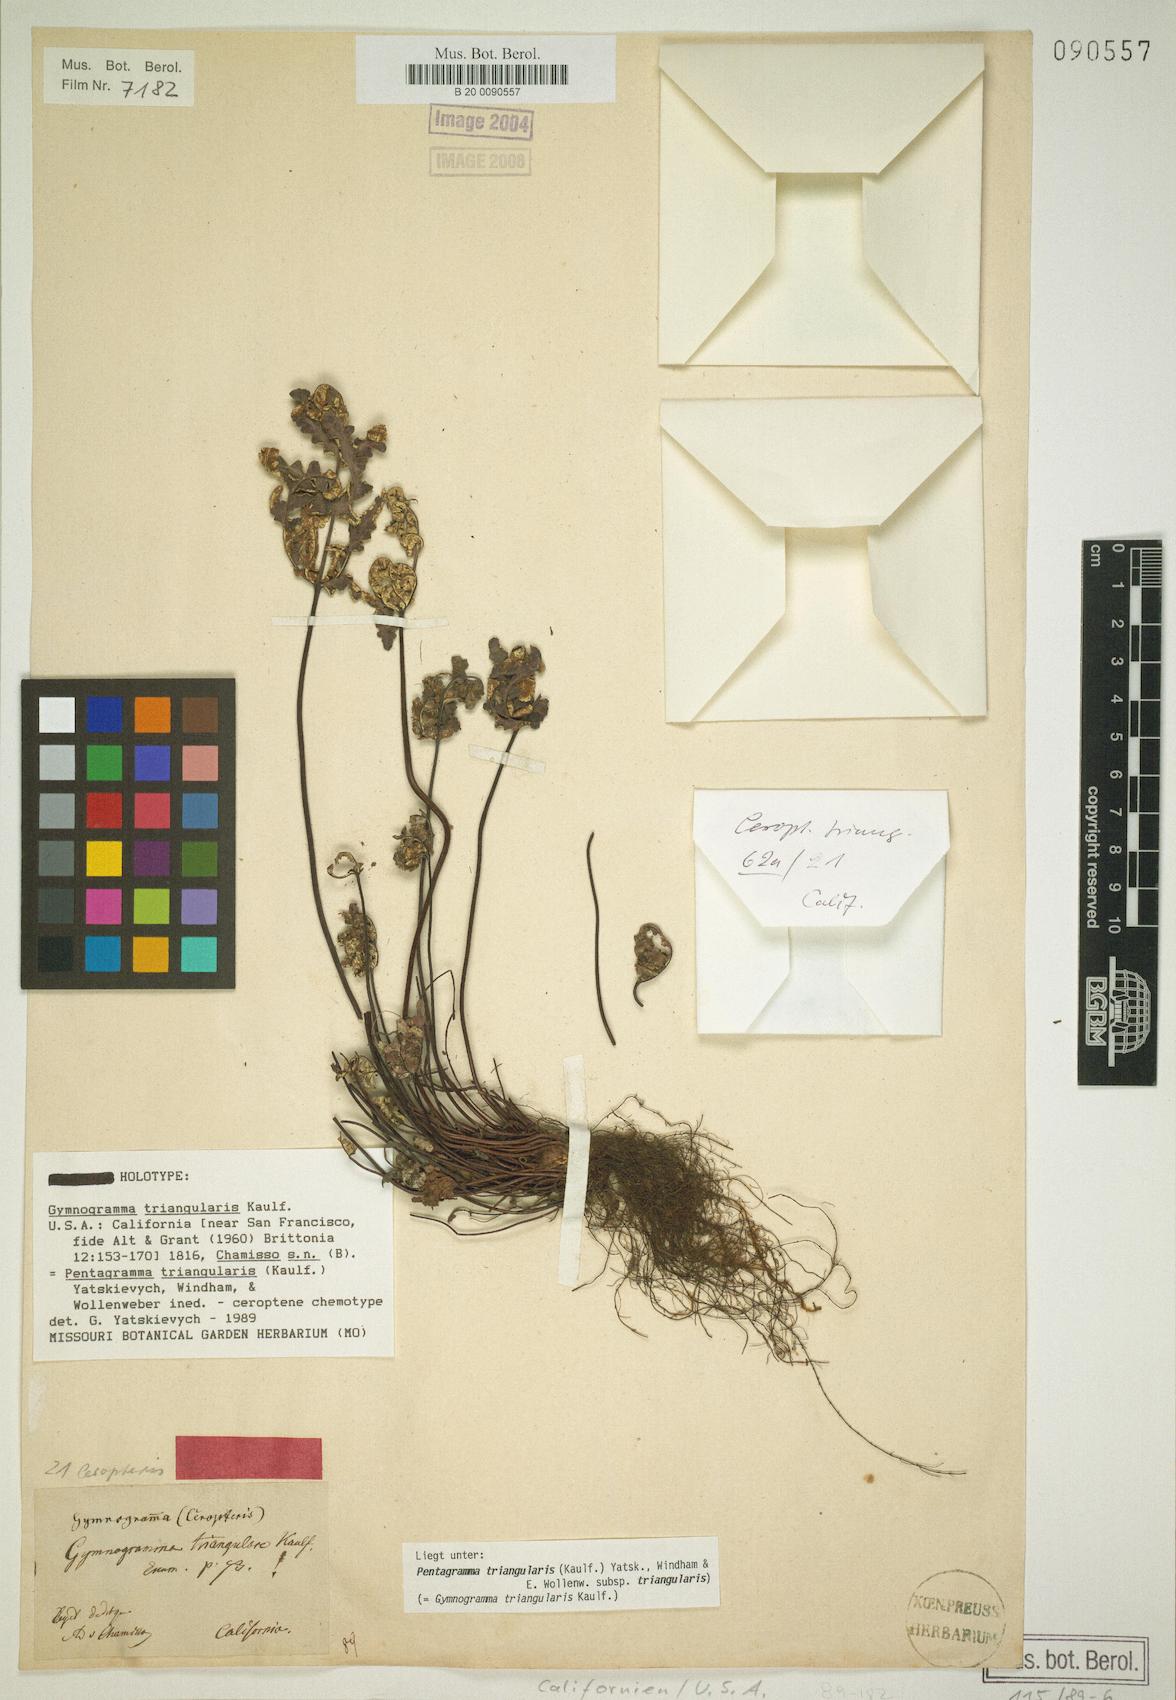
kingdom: Plantae
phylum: Tracheophyta
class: Polypodiopsida
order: Polypodiales
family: Pteridaceae
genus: Pentagramma
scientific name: Pentagramma triangularis
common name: Gold fern
